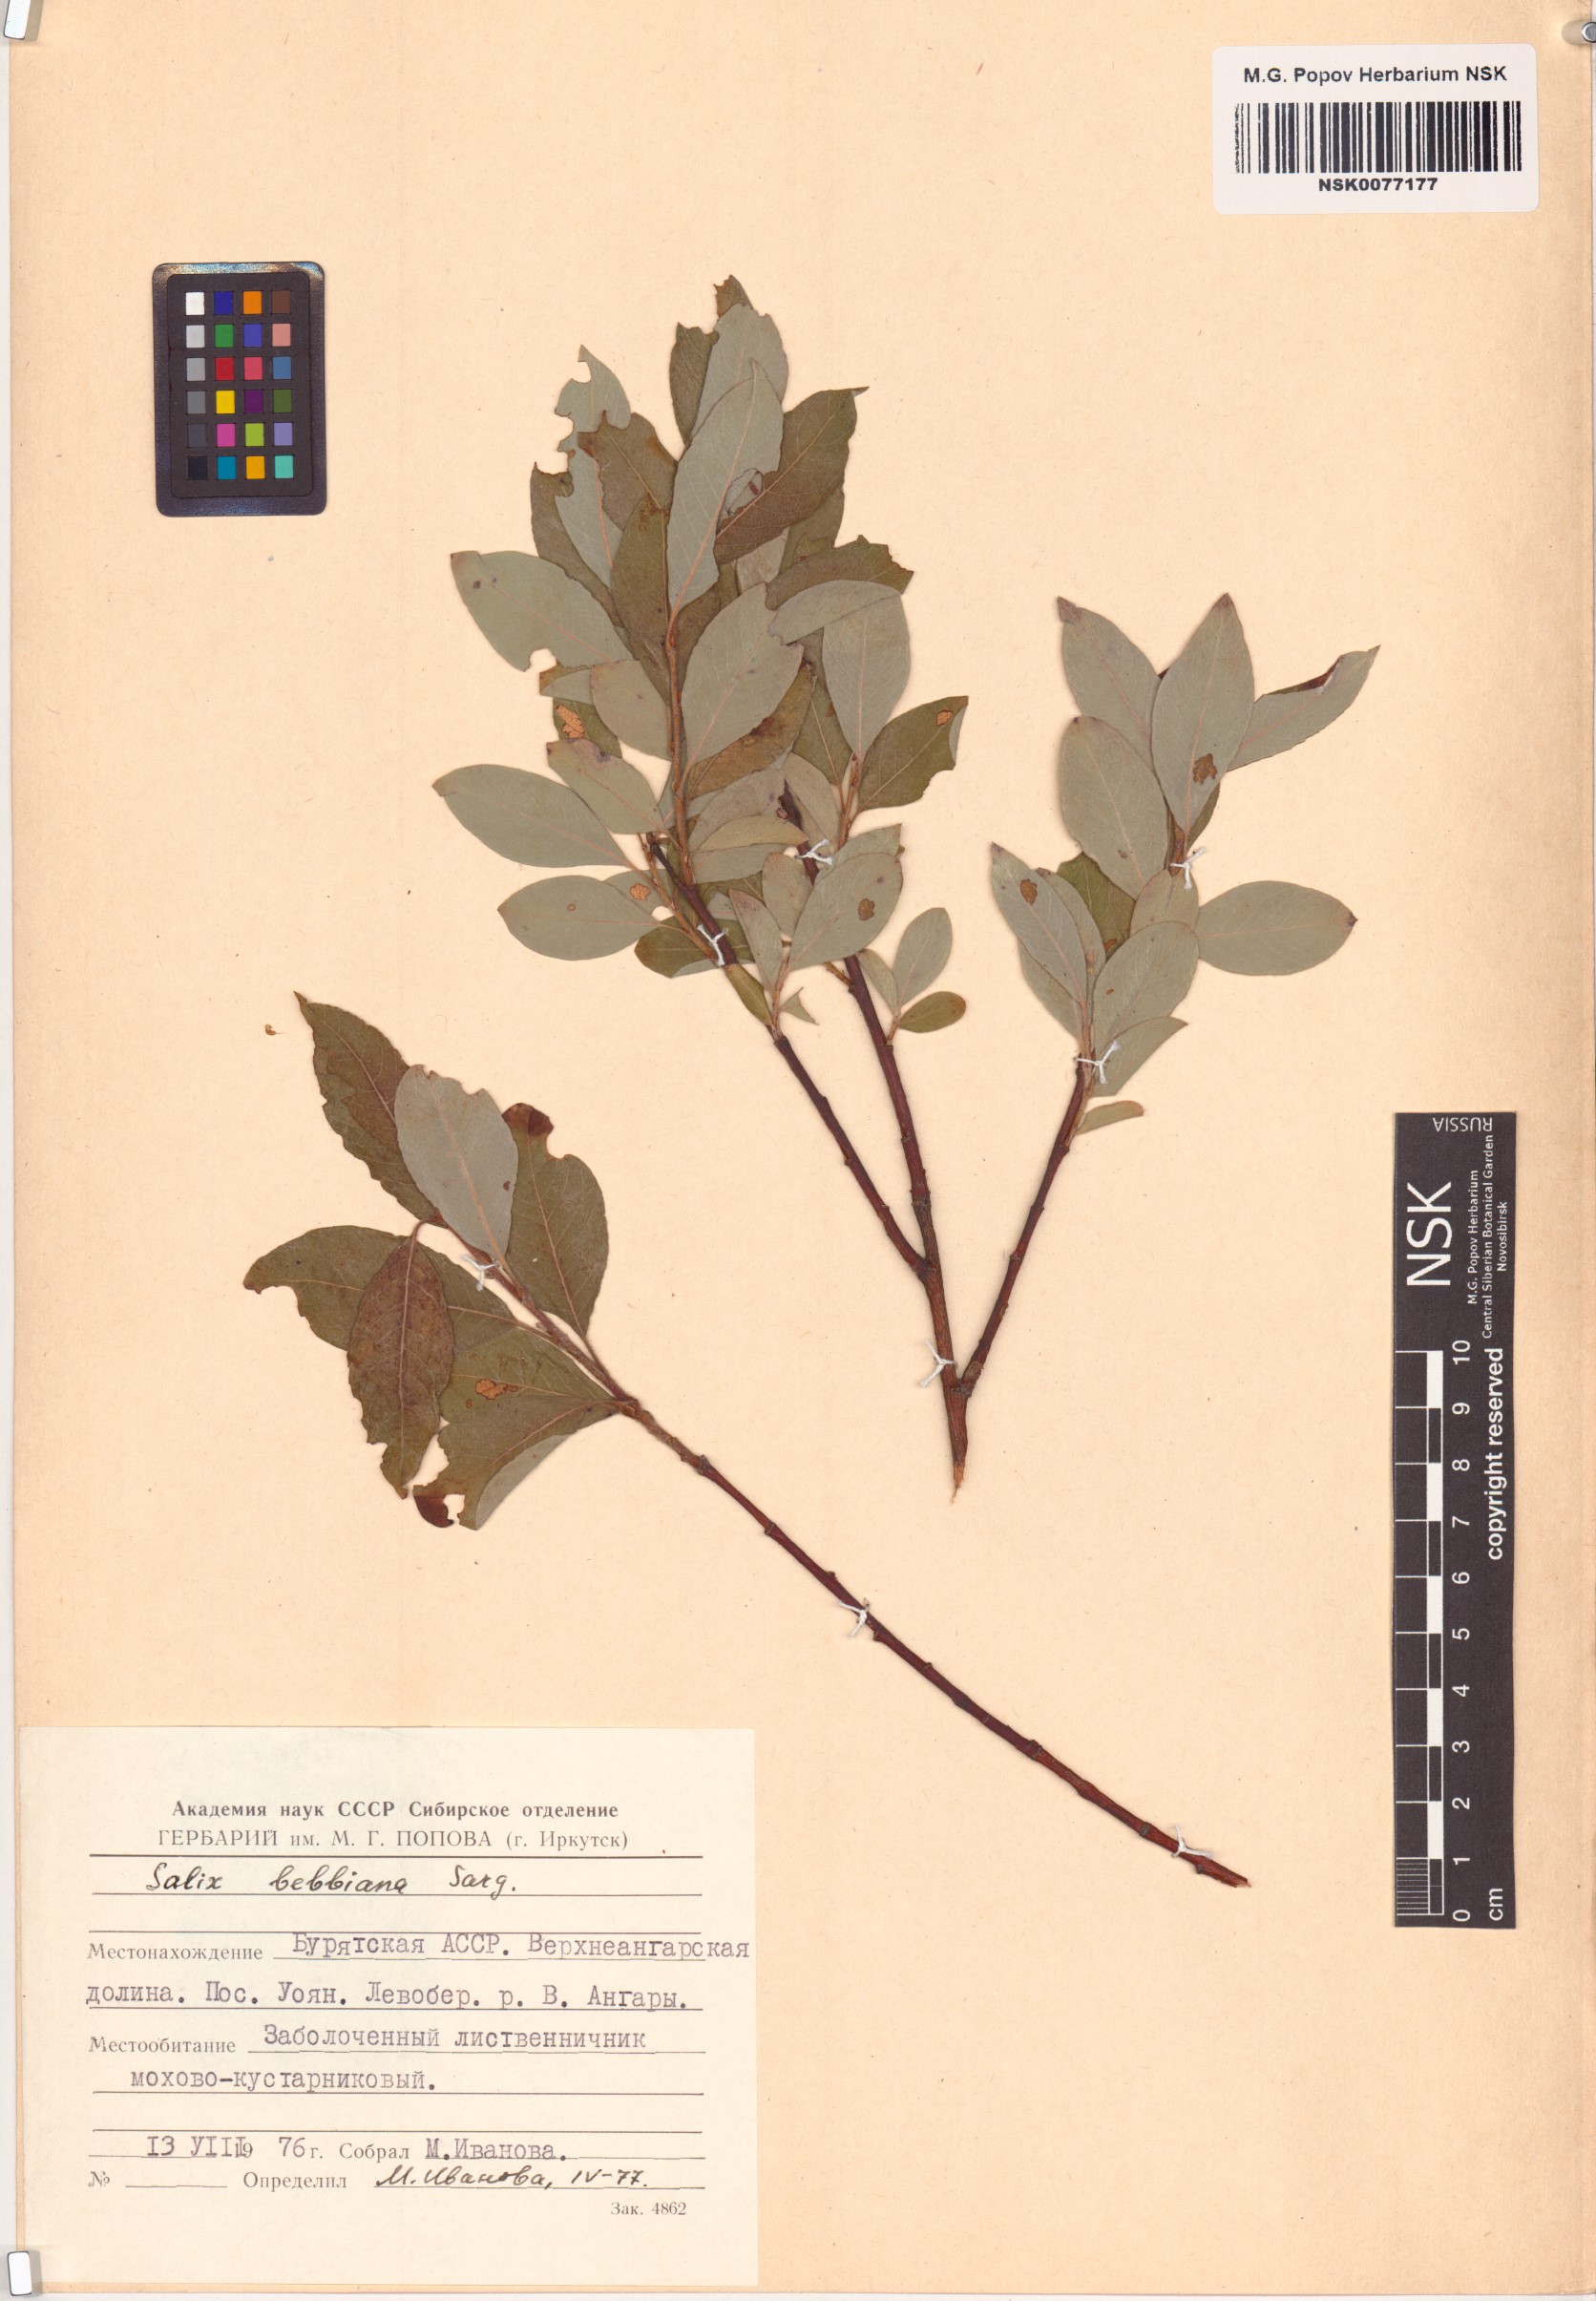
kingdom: Plantae
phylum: Tracheophyta
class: Magnoliopsida
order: Malpighiales
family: Salicaceae
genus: Salix
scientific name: Salix bebbiana
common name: Bebb's willow
